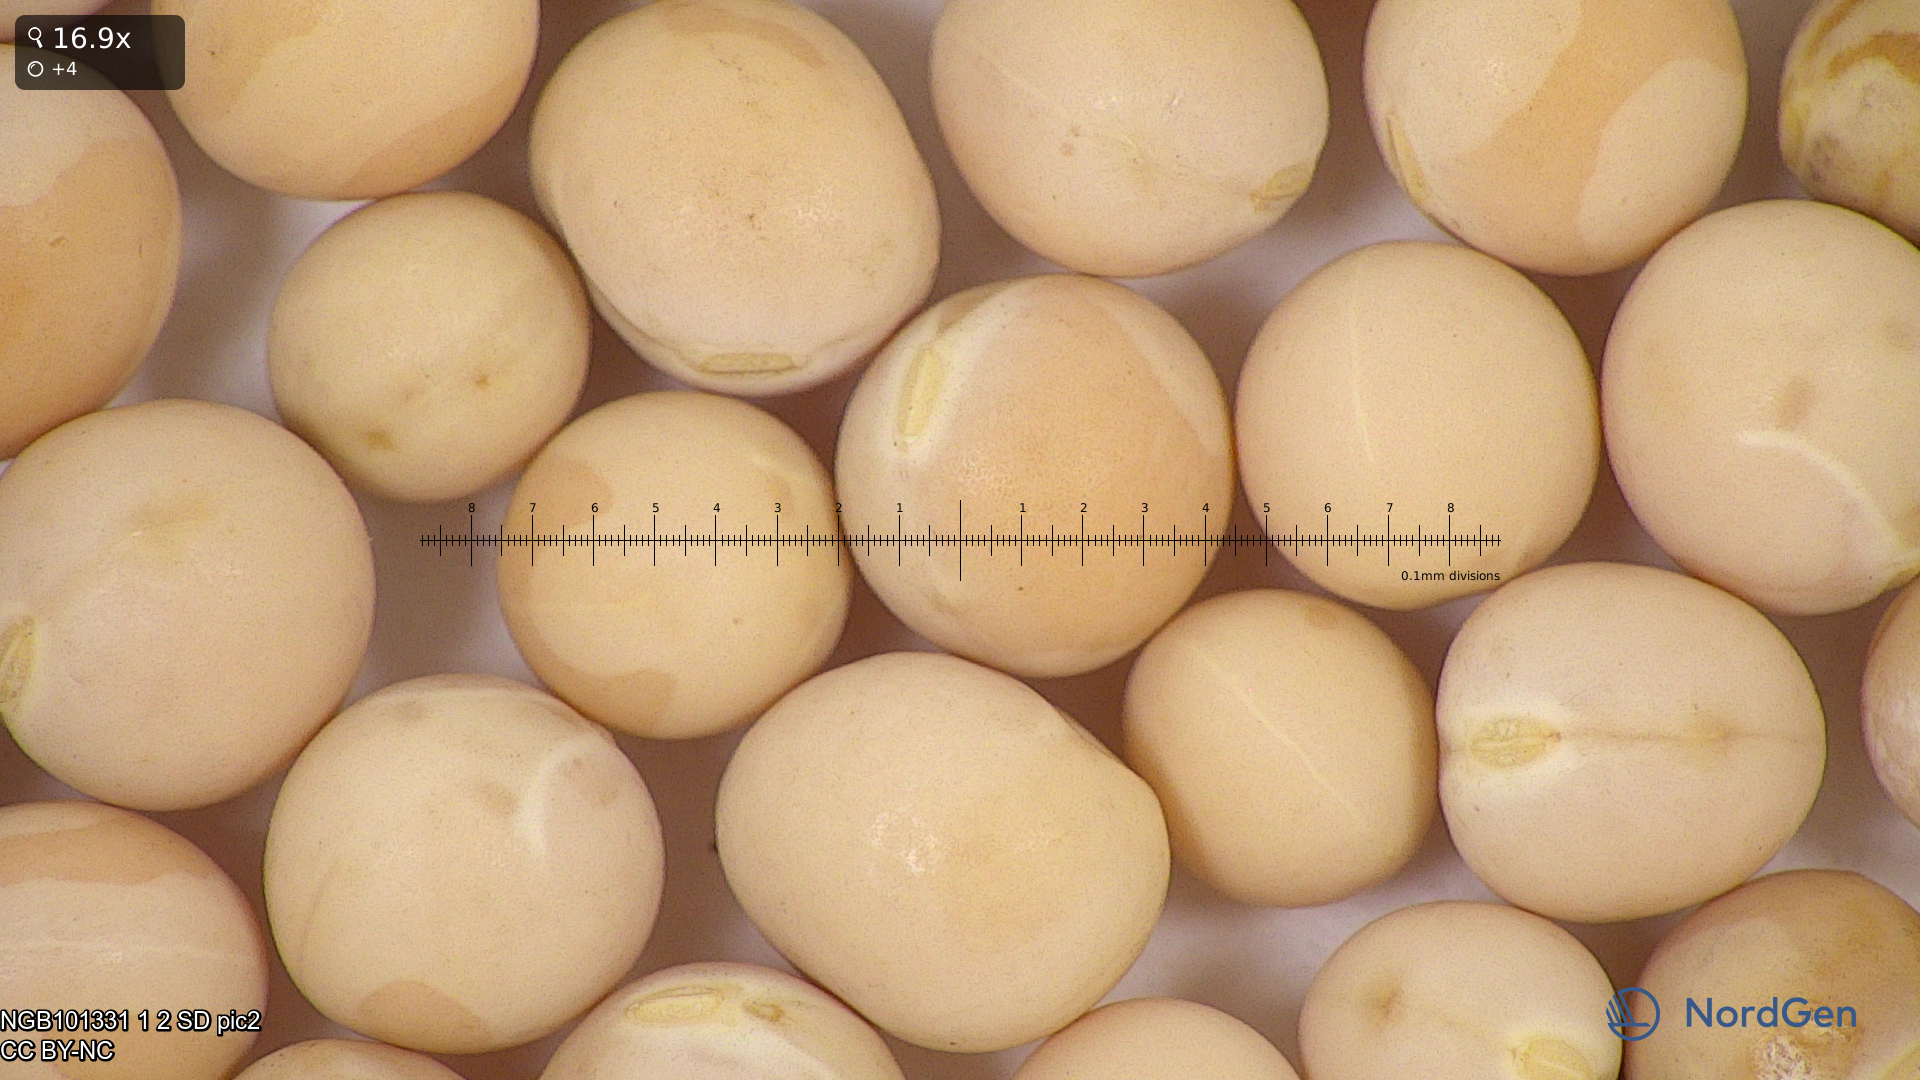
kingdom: Plantae
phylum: Tracheophyta
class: Magnoliopsida
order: Fabales
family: Fabaceae
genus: Lathyrus
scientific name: Lathyrus oleraceus
